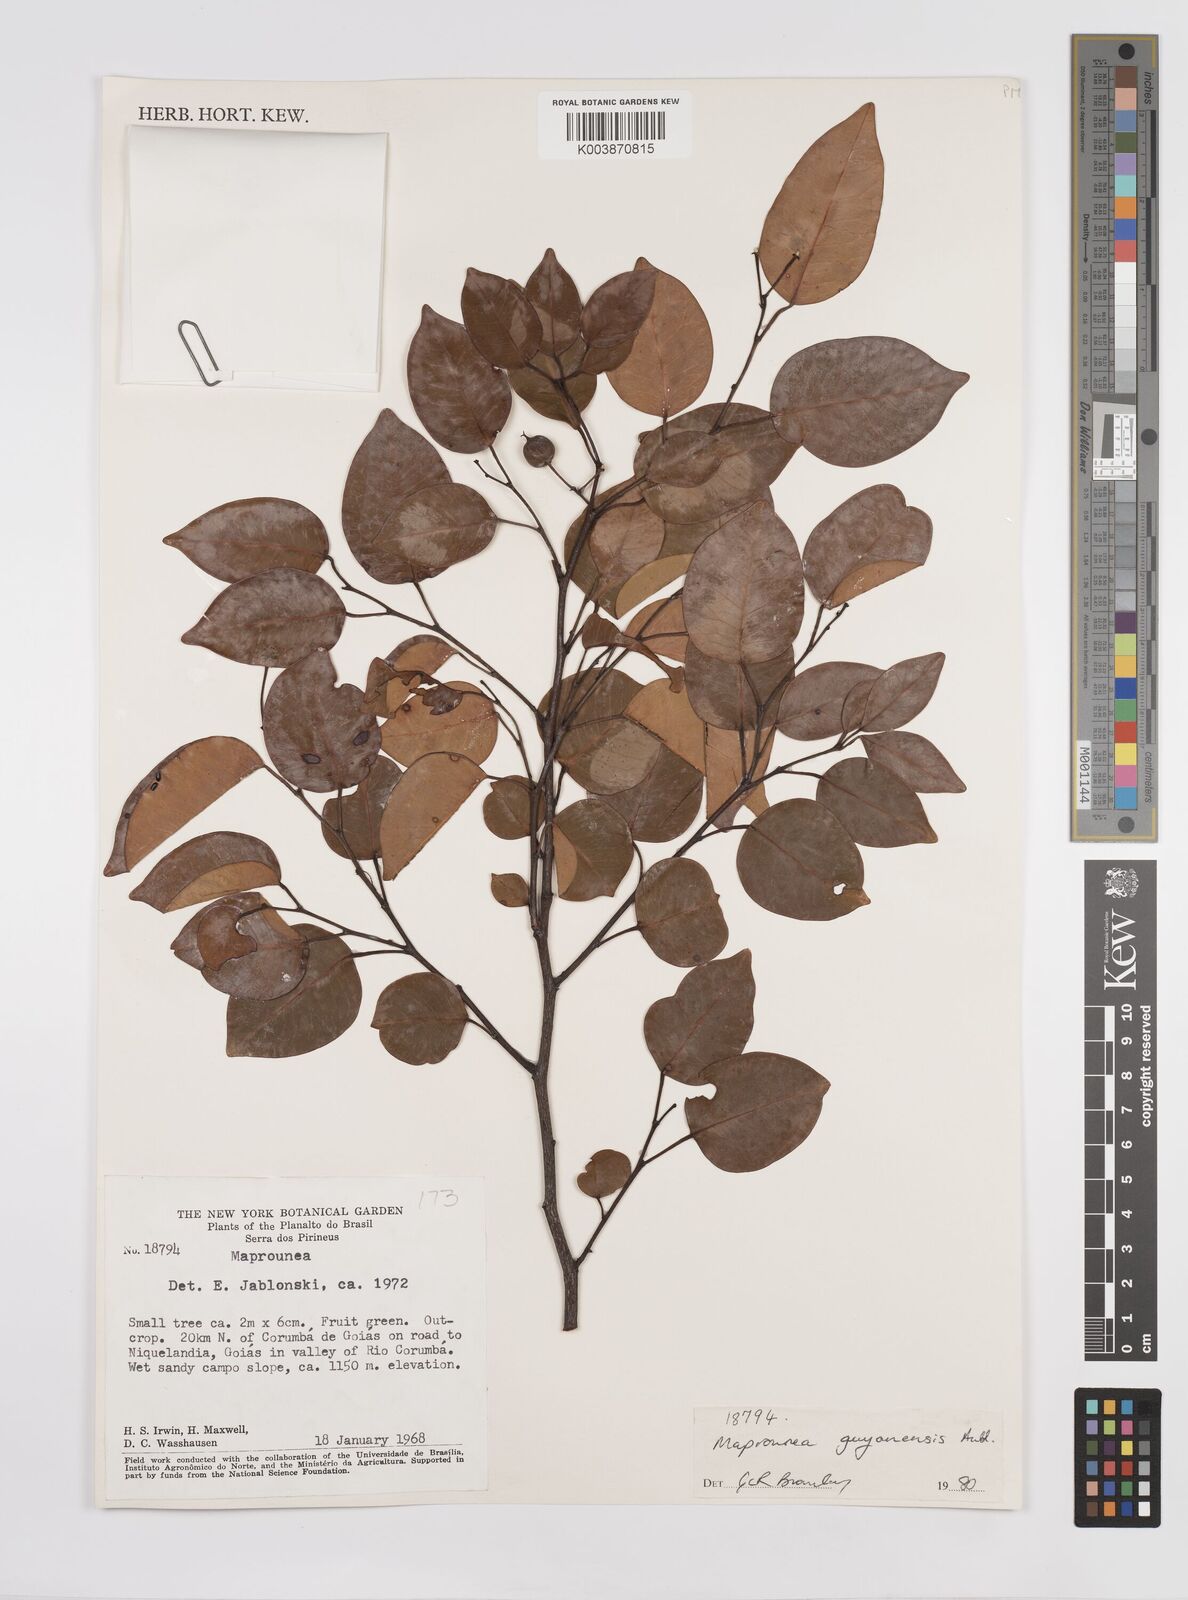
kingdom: Plantae
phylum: Tracheophyta
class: Magnoliopsida
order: Malpighiales
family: Euphorbiaceae
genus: Maprounea
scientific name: Maprounea guianensis
